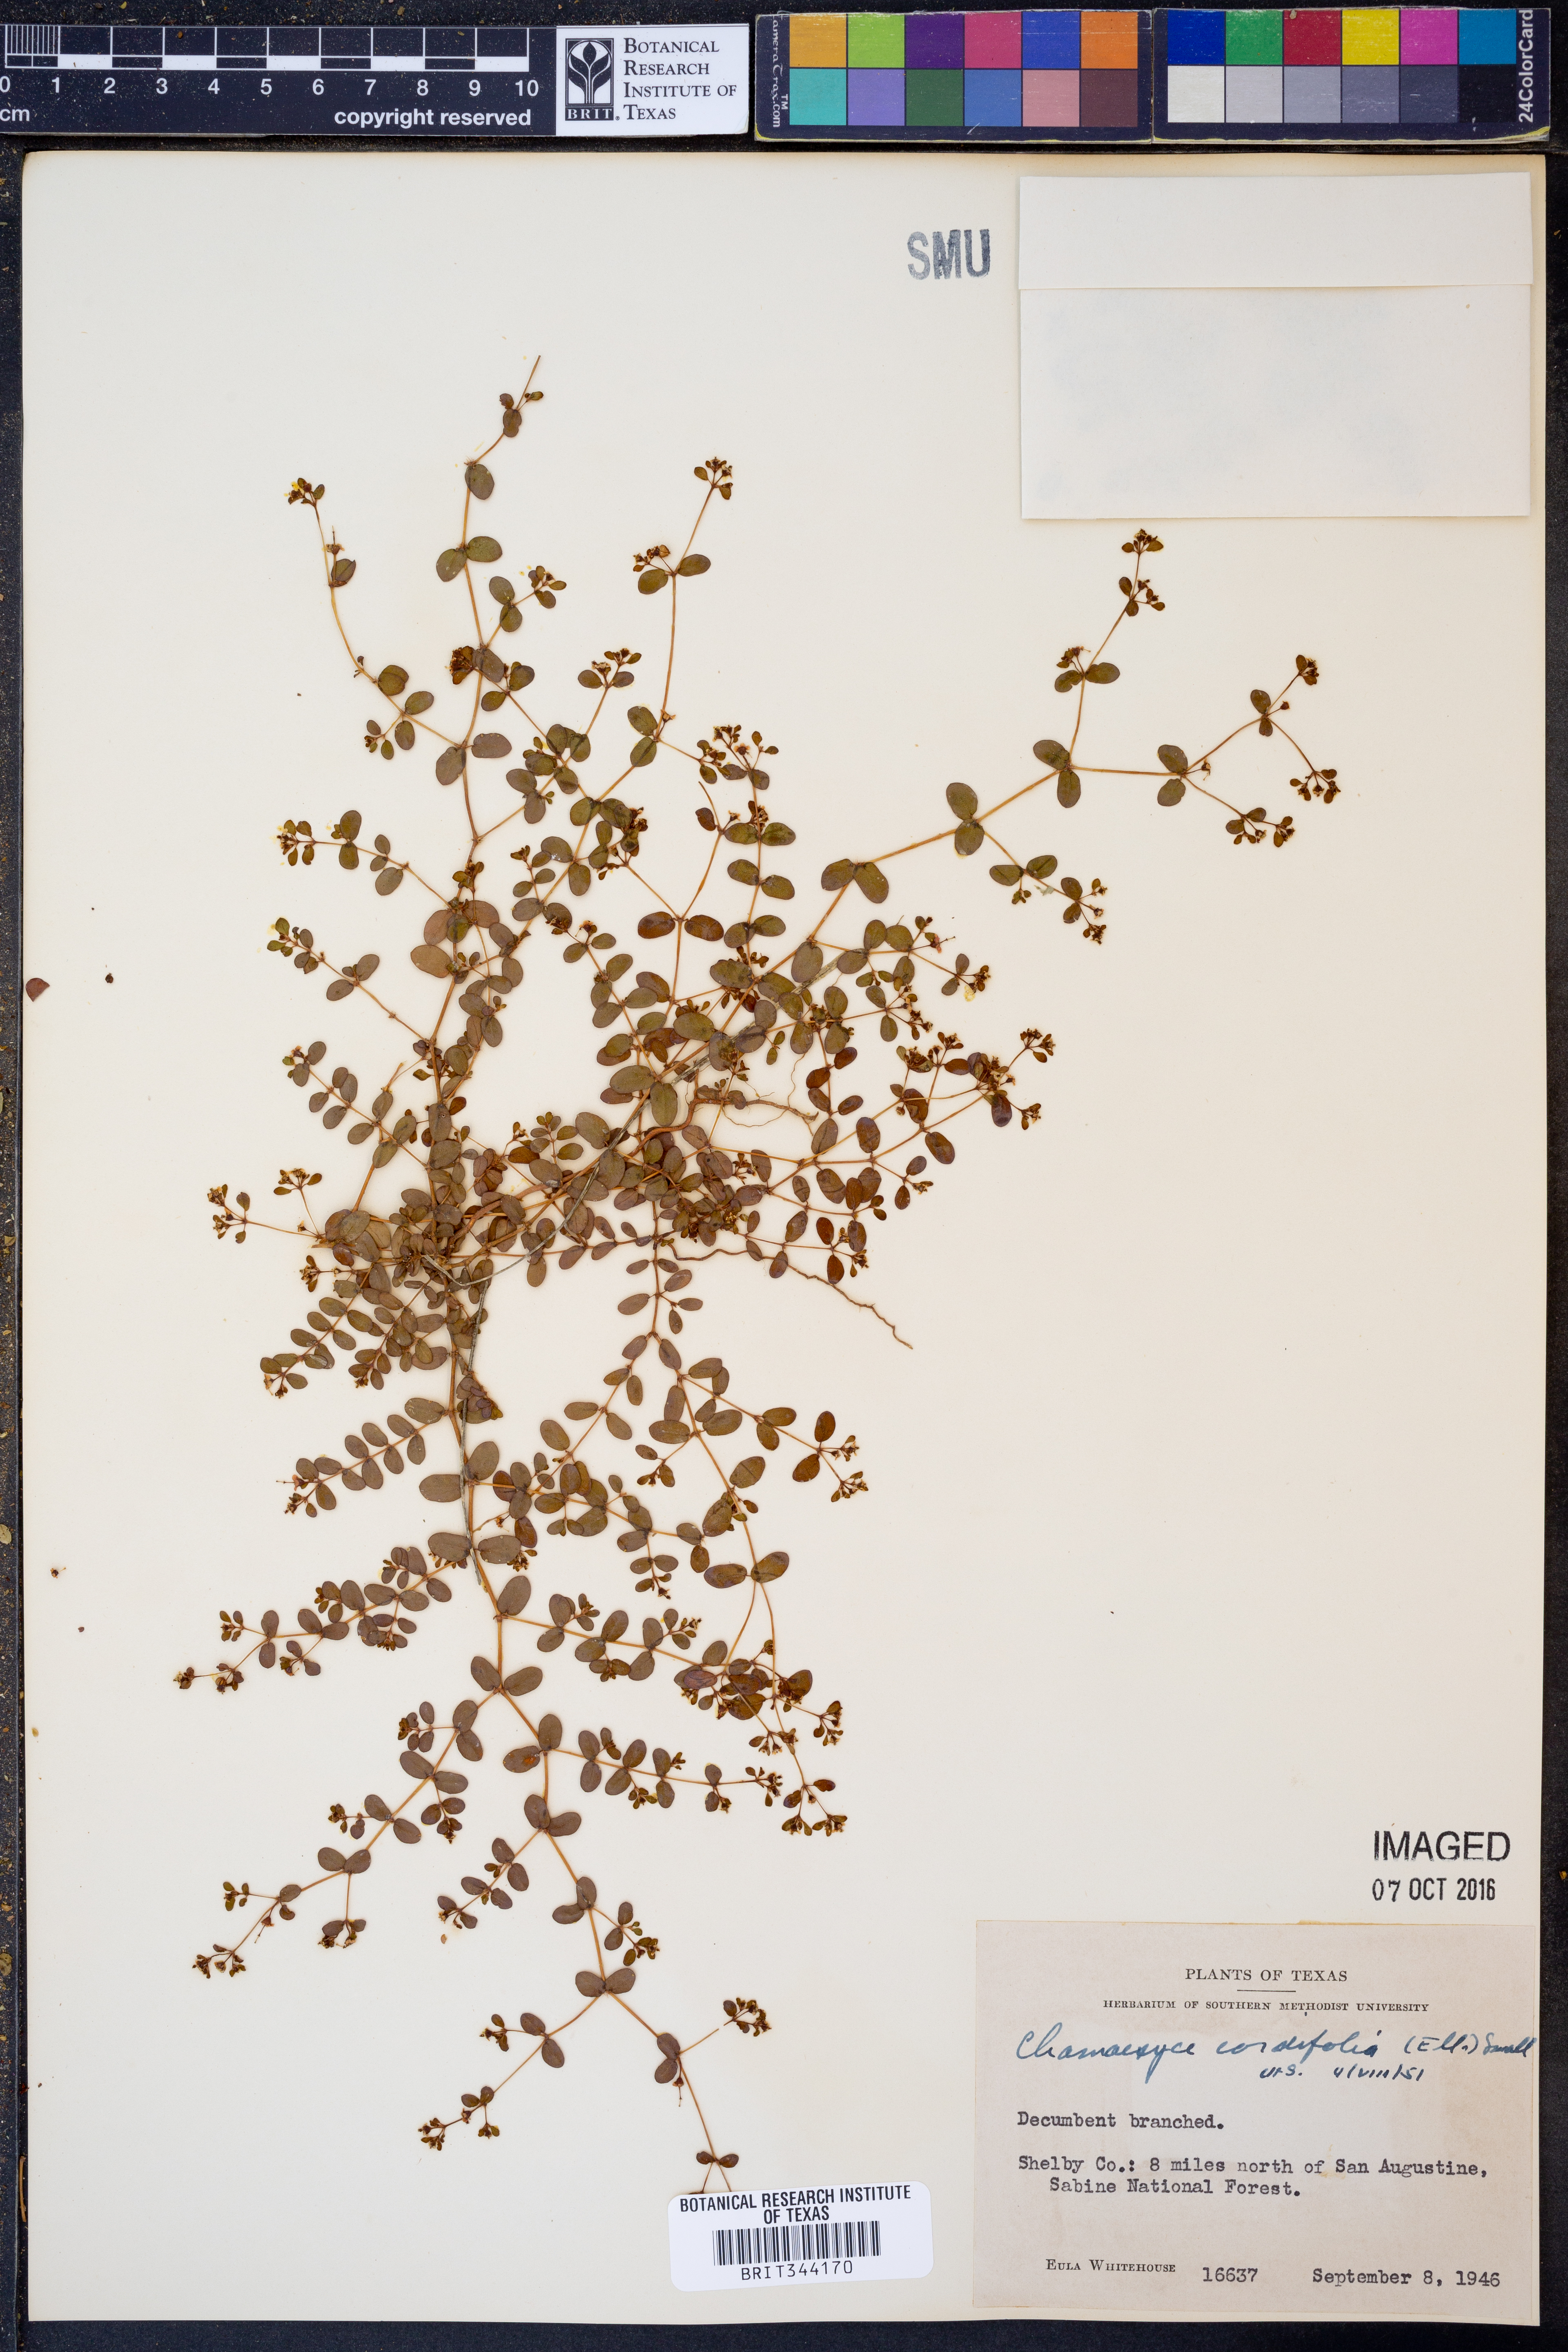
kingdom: Plantae
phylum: Tracheophyta
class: Magnoliopsida
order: Malpighiales
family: Euphorbiaceae
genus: Euphorbia
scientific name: Euphorbia cordifolia
